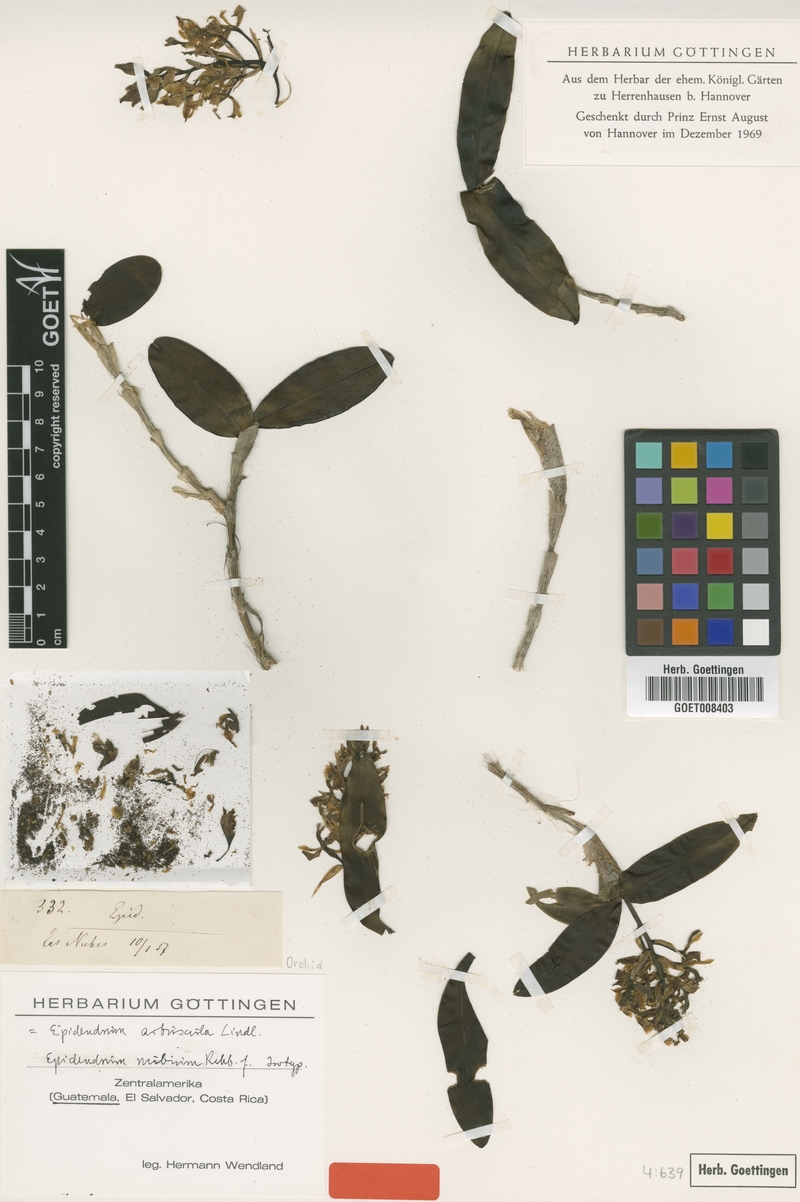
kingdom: Plantae
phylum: Tracheophyta
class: Liliopsida
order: Asparagales
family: Orchidaceae
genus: Epidendrum
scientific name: Epidendrum arbuscula
